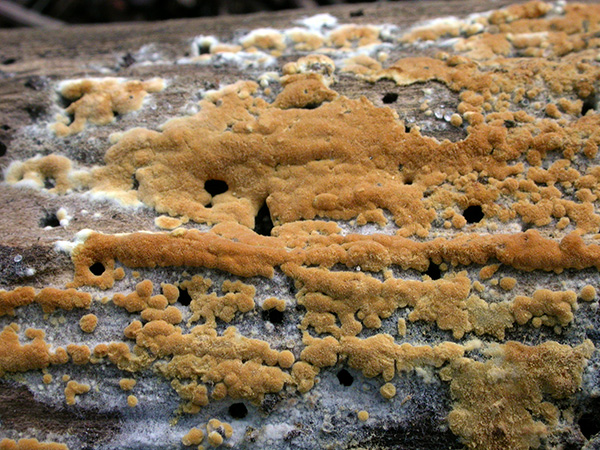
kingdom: Fungi
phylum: Basidiomycota
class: Agaricomycetes
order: Cantharellales
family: Botryobasidiaceae
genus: Botryobasidium
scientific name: Botryobasidium aureum
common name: gylden spindhinde
